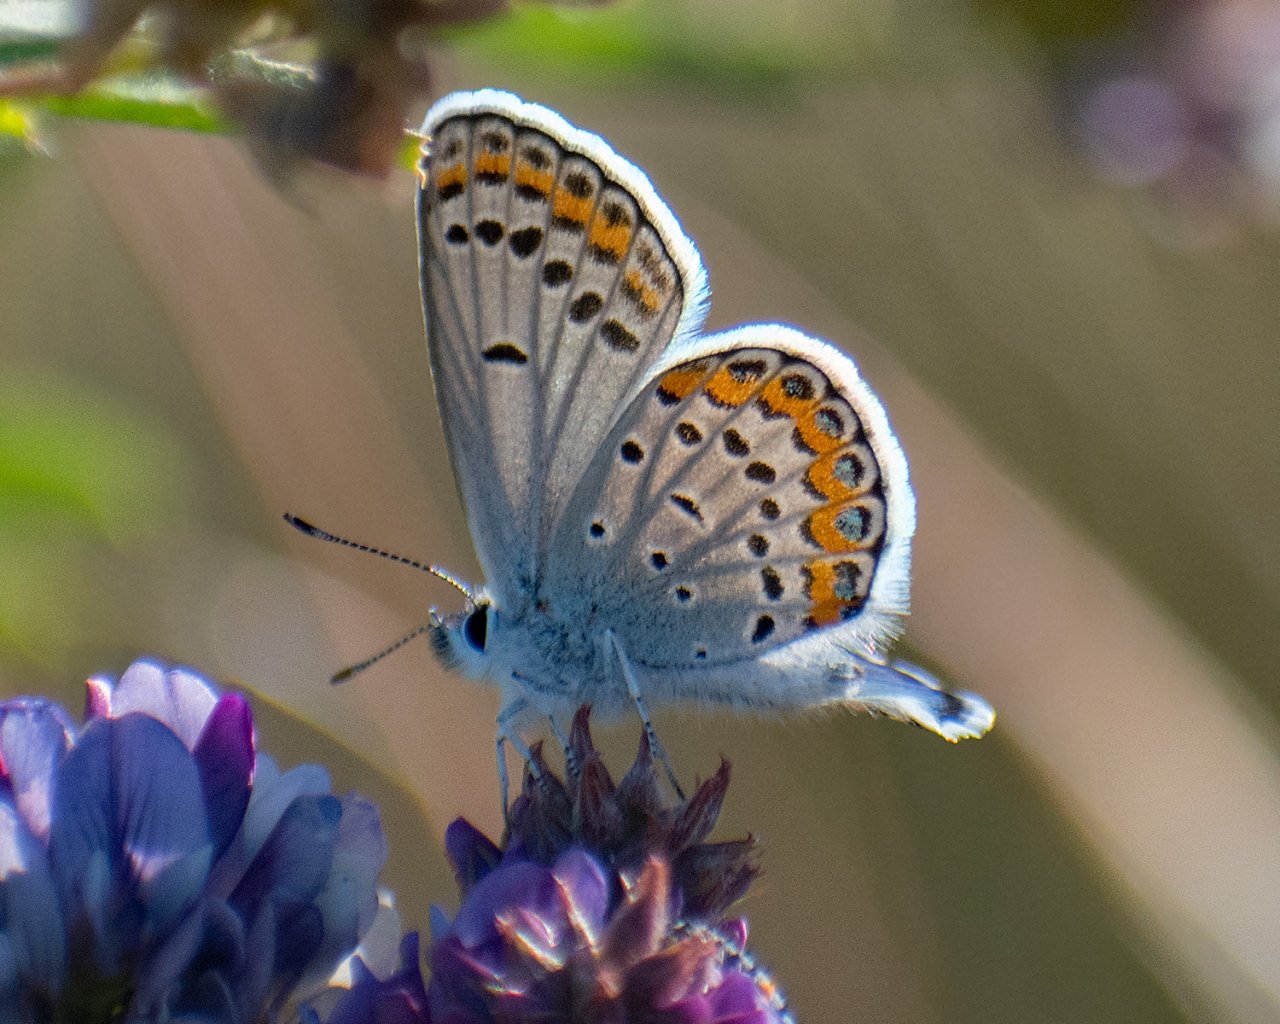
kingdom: Animalia
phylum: Arthropoda
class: Insecta
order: Lepidoptera
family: Lycaenidae
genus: Lycaeides
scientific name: Lycaeides melissa
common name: Melissa Blue
